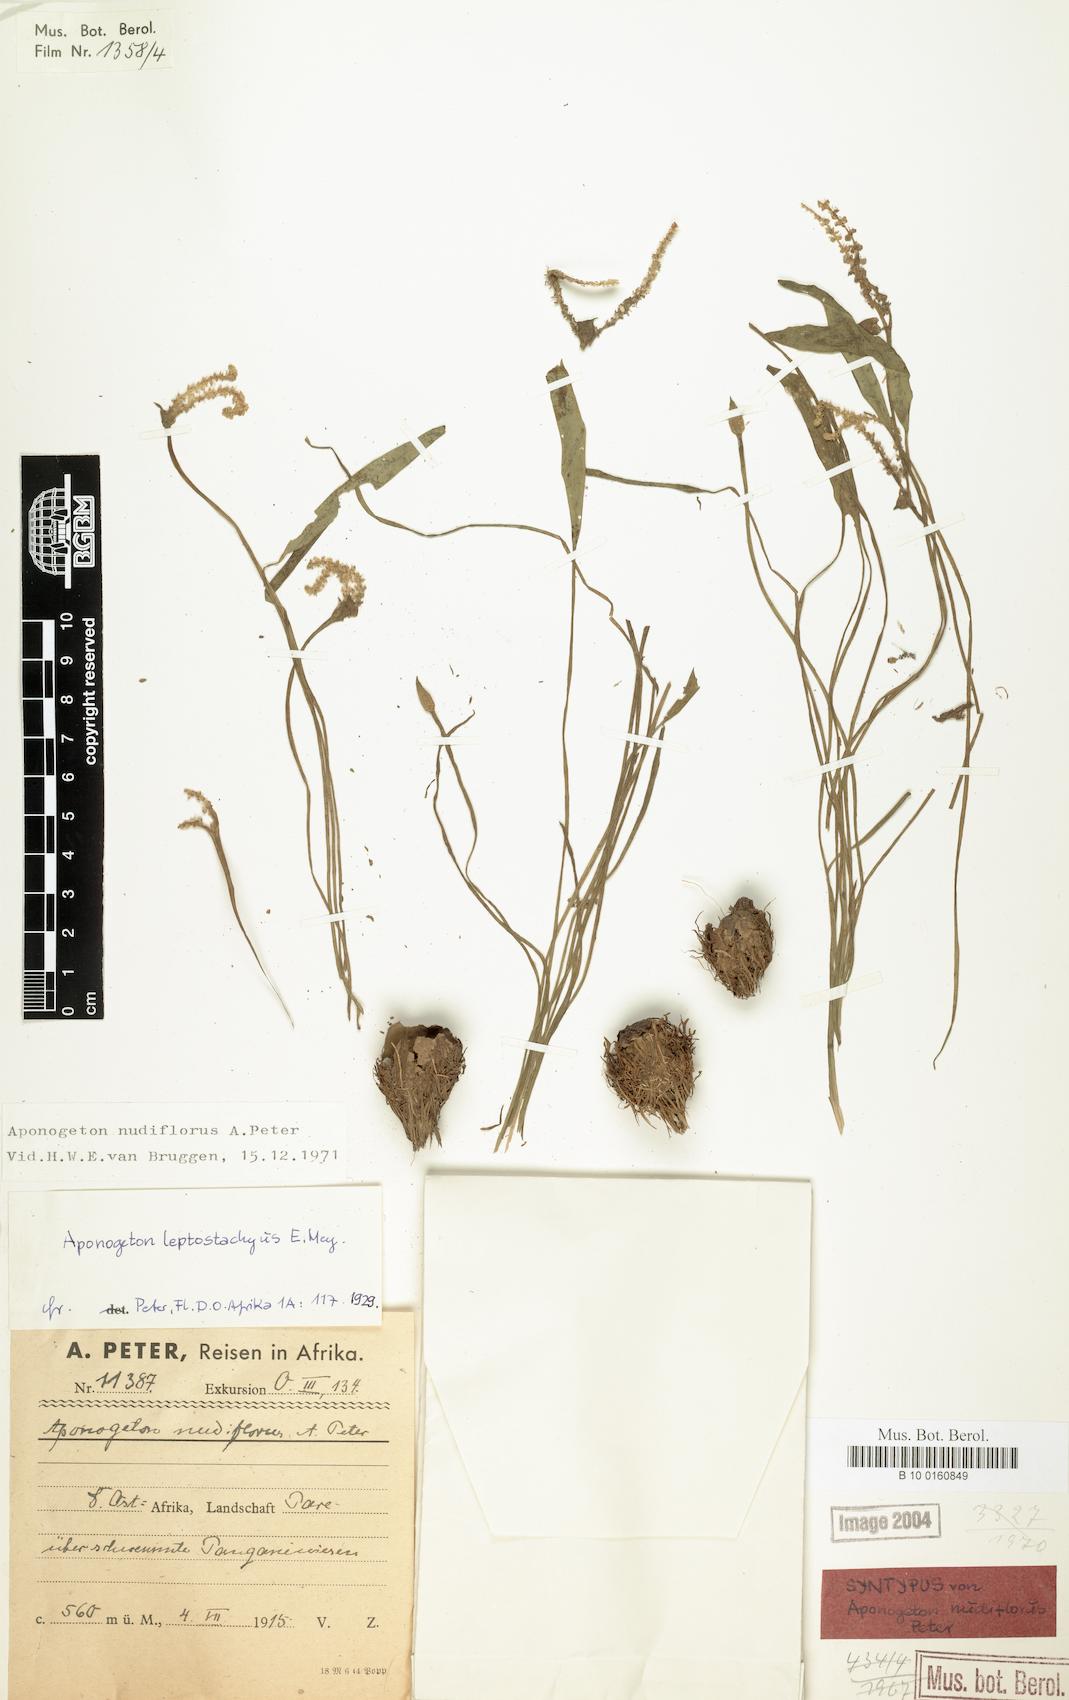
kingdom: Plantae
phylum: Tracheophyta
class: Liliopsida
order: Alismatales
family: Aponogetonaceae
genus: Aponogeton
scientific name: Aponogeton nudiflorus
